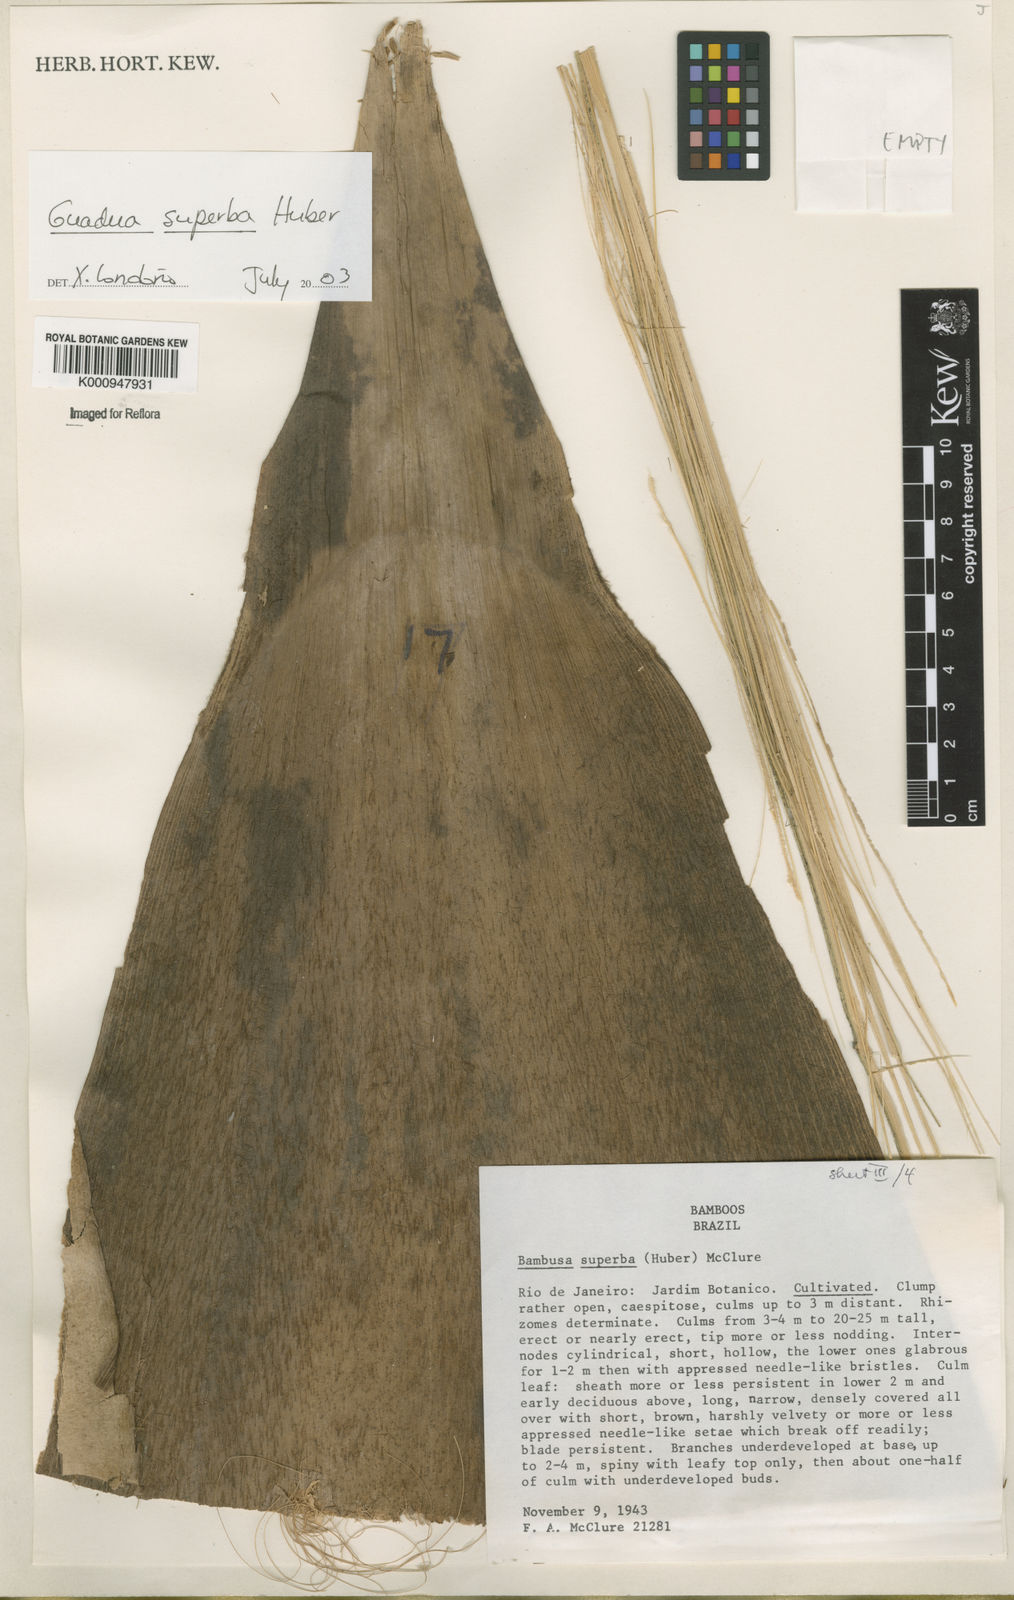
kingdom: Plantae
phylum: Tracheophyta
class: Liliopsida
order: Poales
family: Poaceae
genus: Guadua
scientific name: Guadua superba
